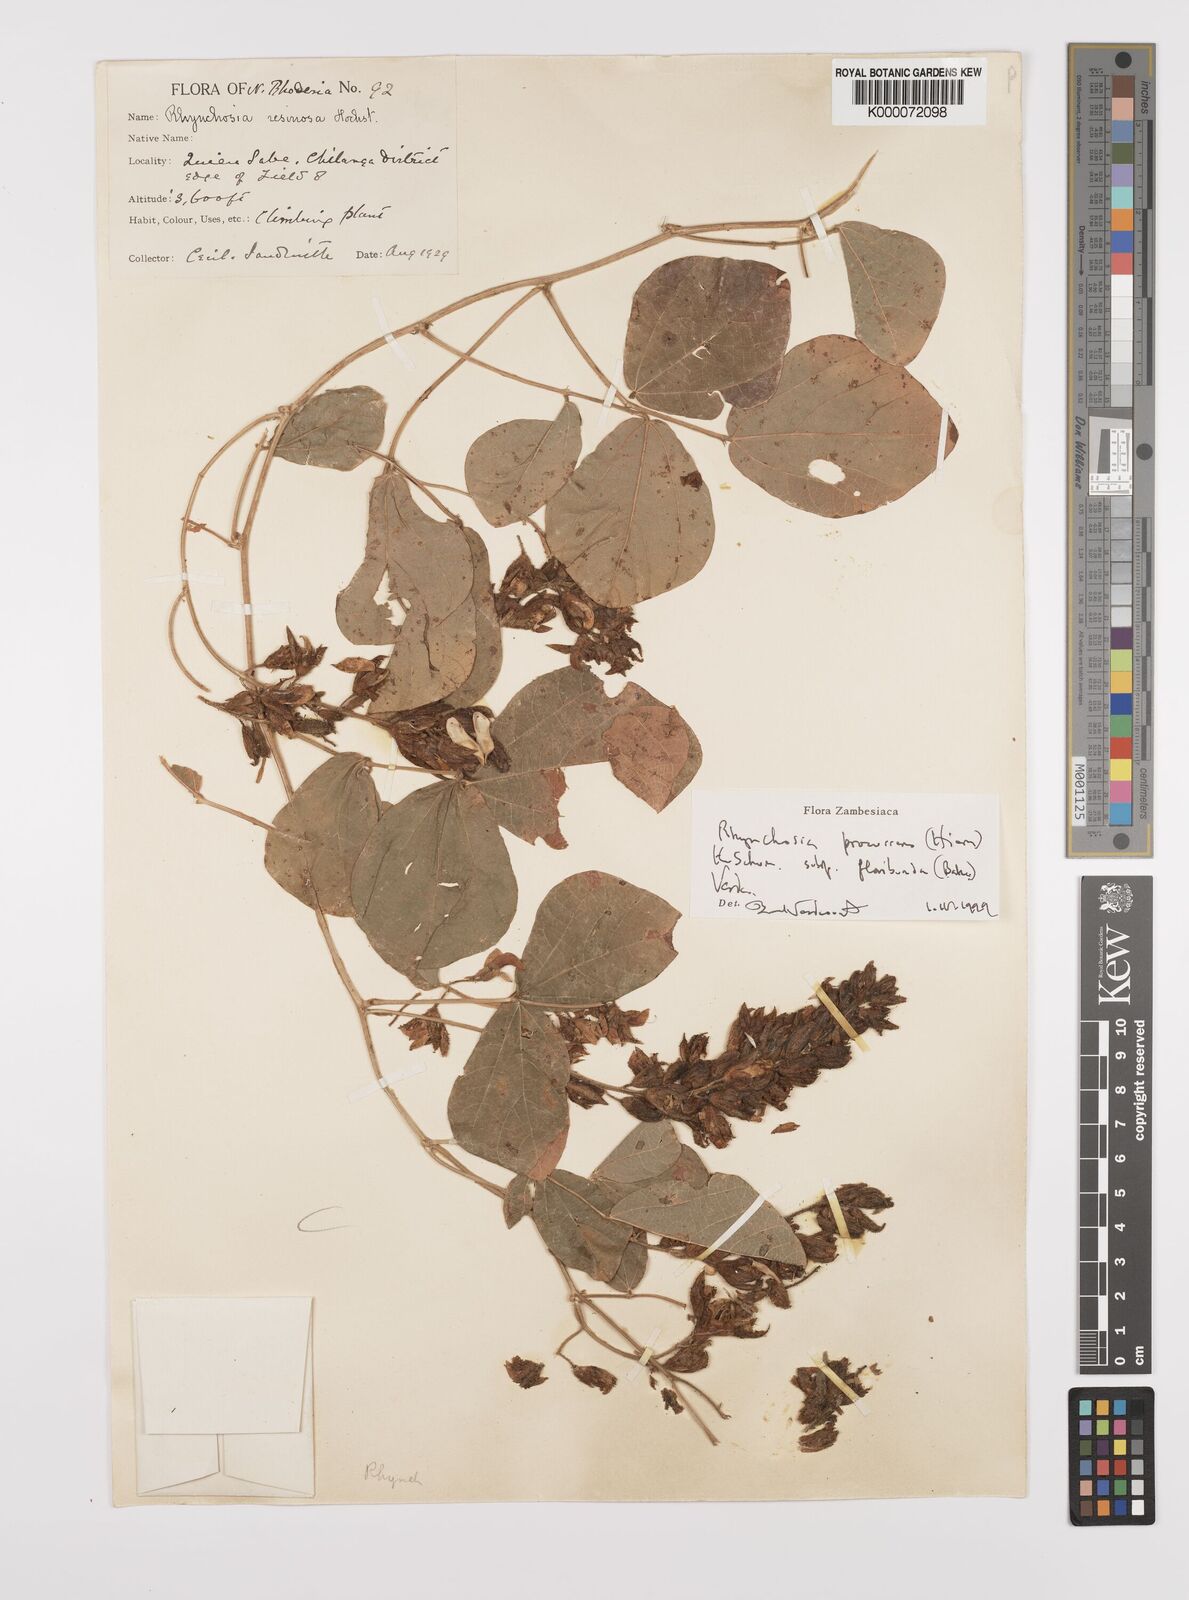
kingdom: Plantae
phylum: Tracheophyta
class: Magnoliopsida
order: Fabales
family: Fabaceae
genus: Rhynchosia
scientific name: Rhynchosia procurrens
